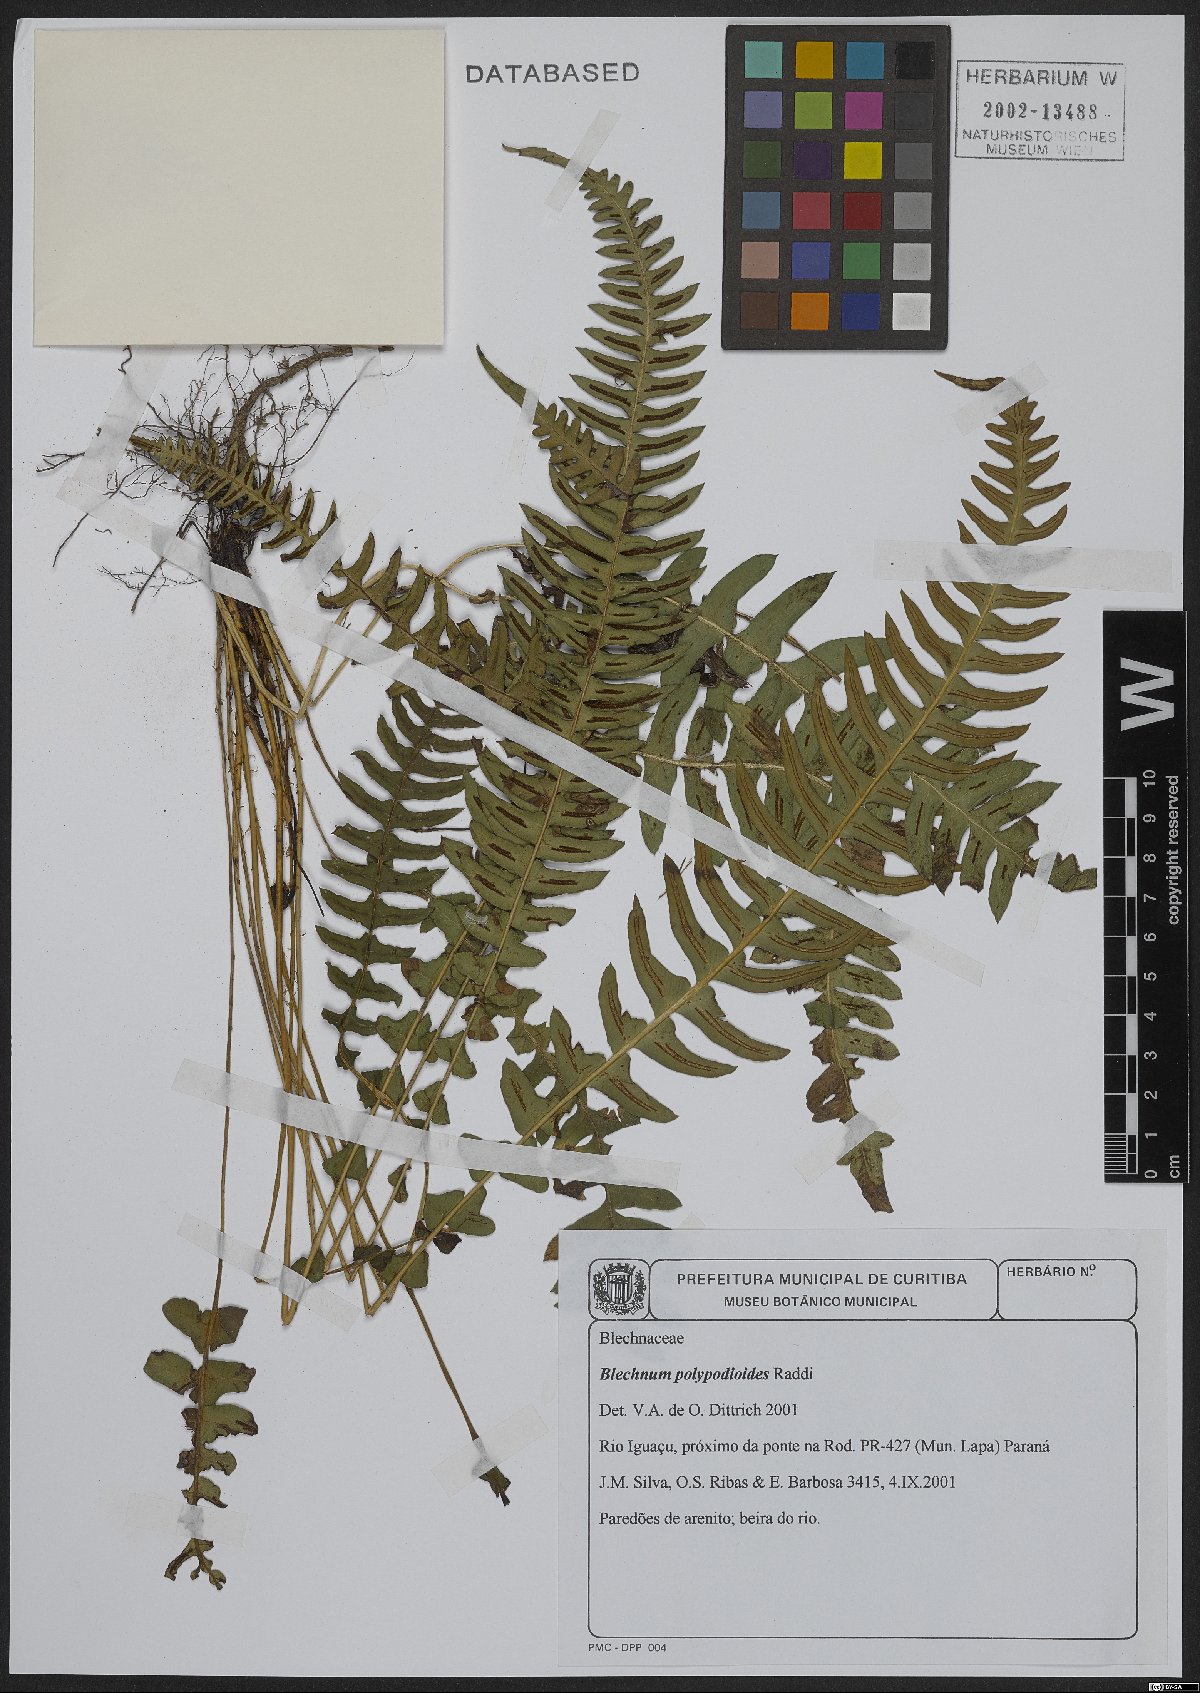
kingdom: Plantae
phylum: Tracheophyta
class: Polypodiopsida
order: Polypodiales
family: Blechnaceae
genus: Blechnum
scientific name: Blechnum polypodioides
